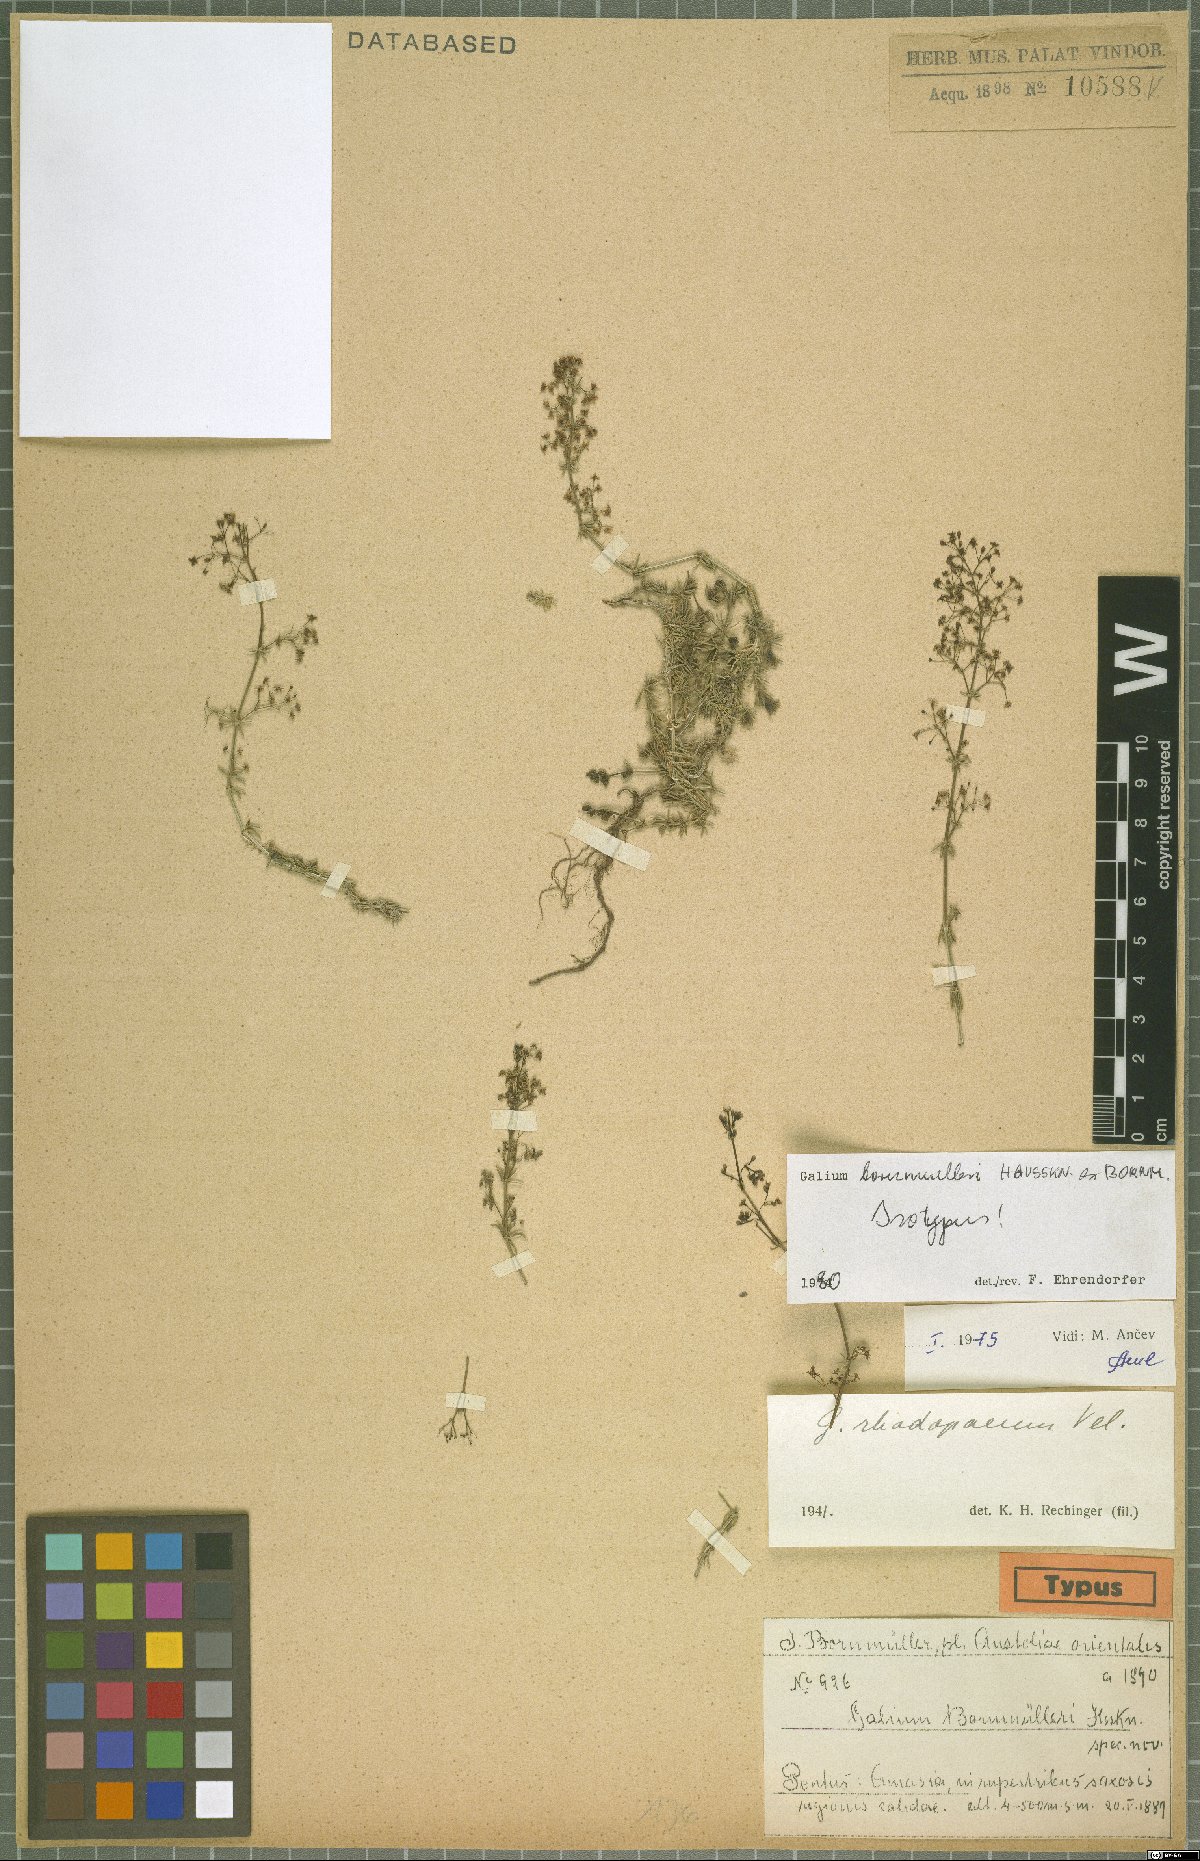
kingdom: Plantae
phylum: Tracheophyta
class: Magnoliopsida
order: Gentianales
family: Rubiaceae
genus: Galium
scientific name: Galium bornmuelleri
